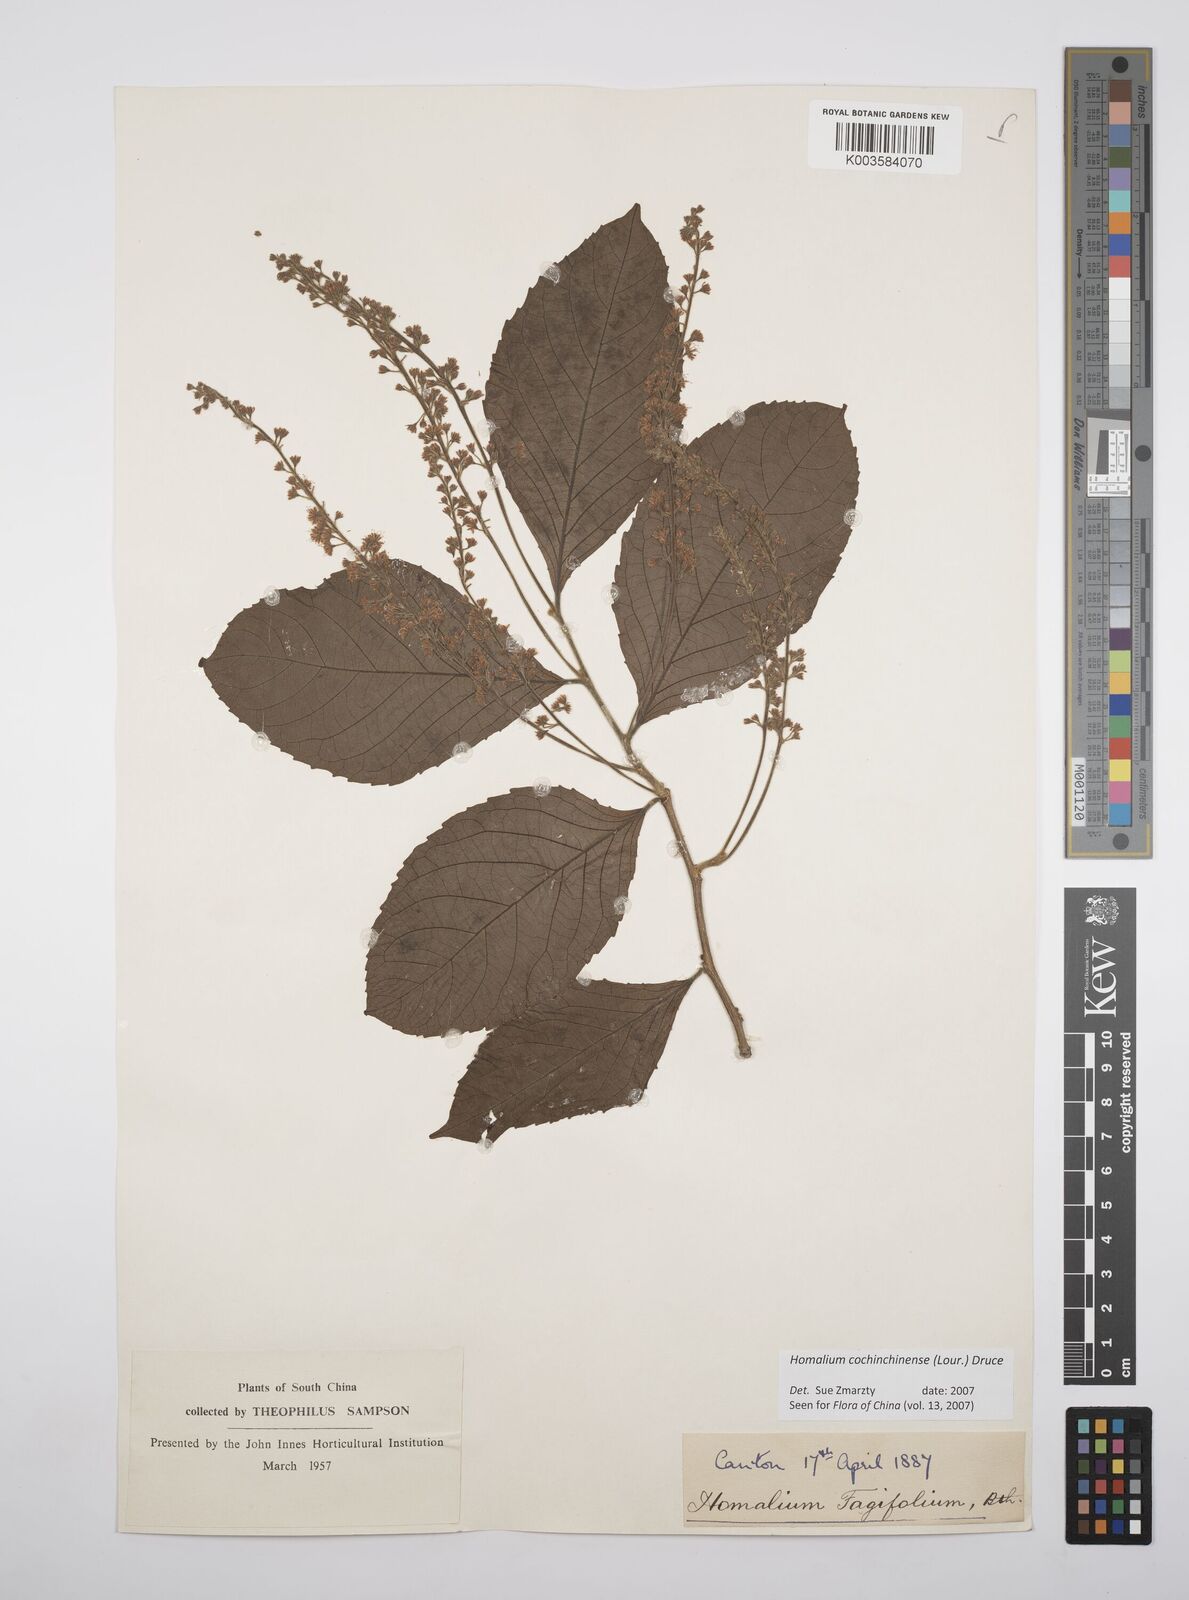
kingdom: Plantae
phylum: Tracheophyta
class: Magnoliopsida
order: Malpighiales
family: Salicaceae
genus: Homalium
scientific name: Homalium cochinchinensis
